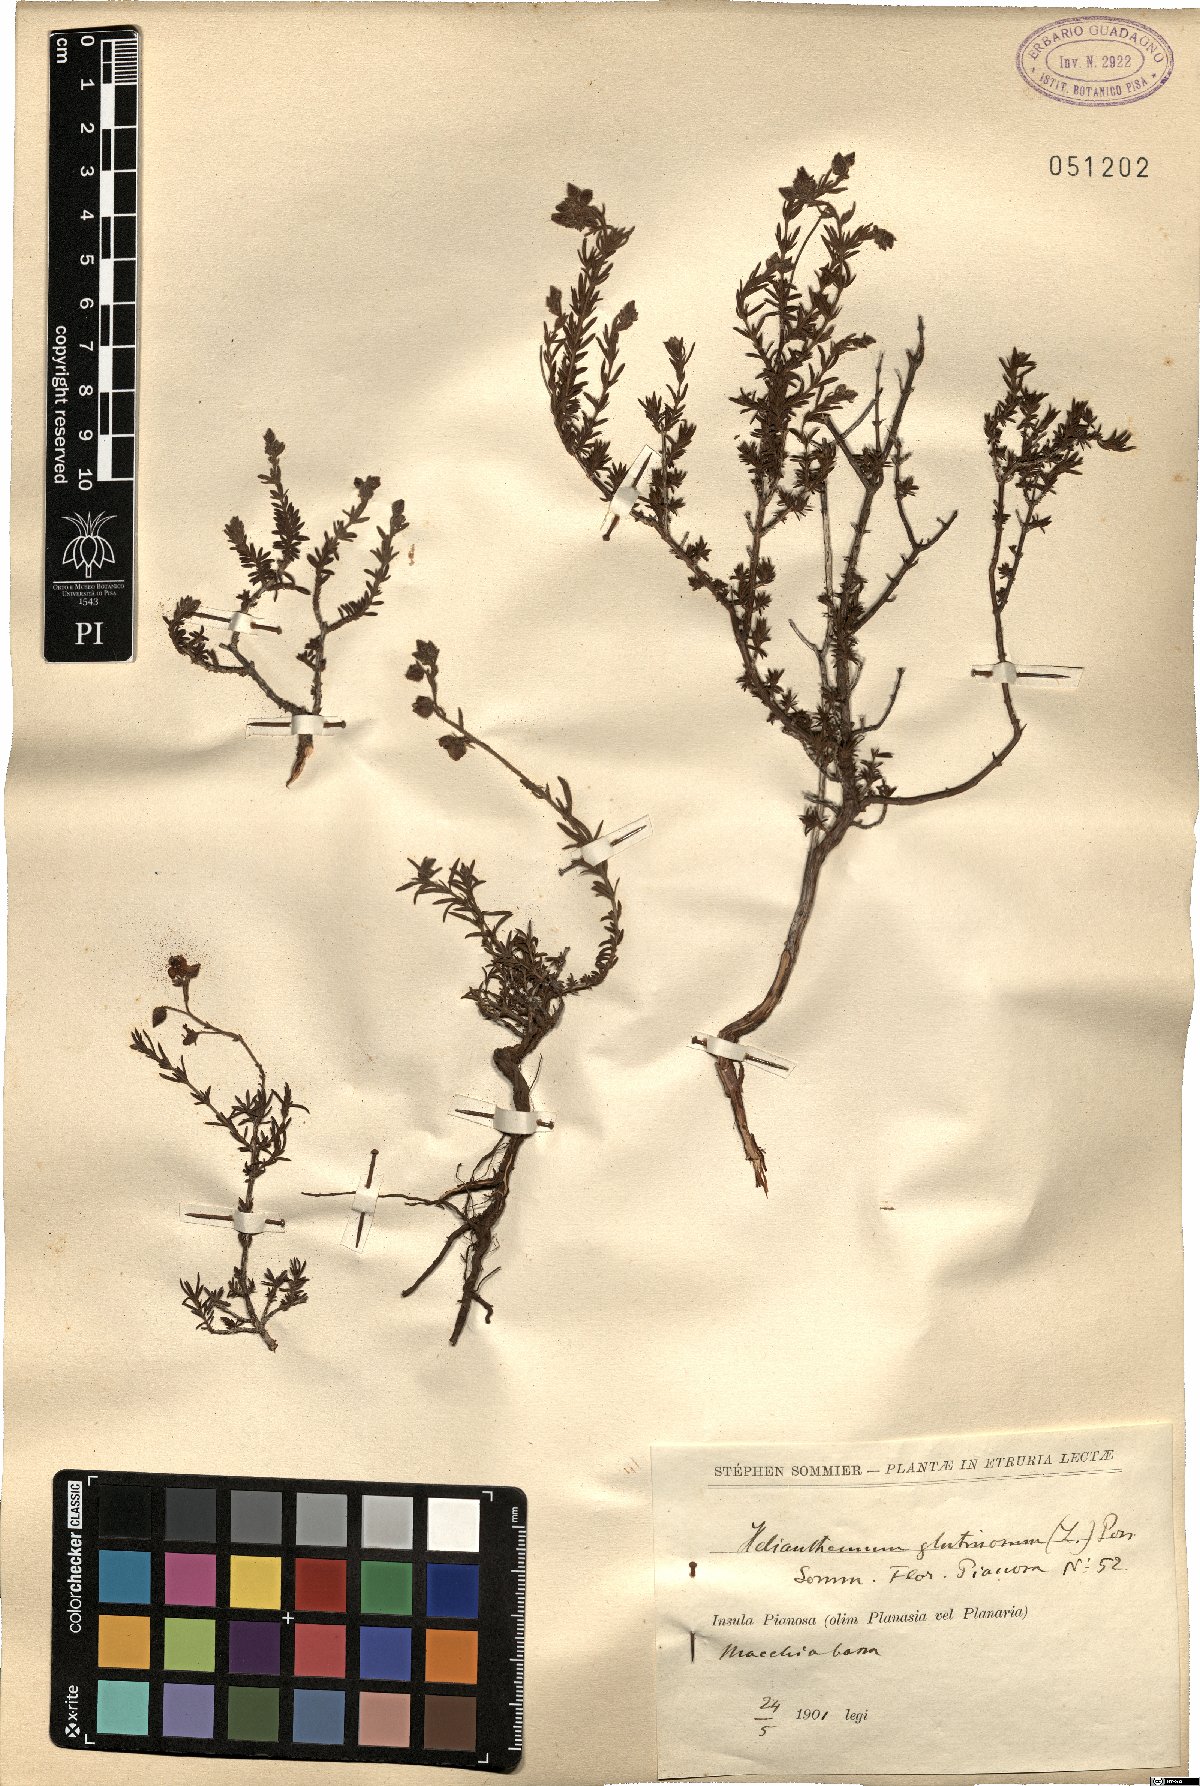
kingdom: Plantae
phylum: Tracheophyta
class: Magnoliopsida
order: Malvales
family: Cistaceae
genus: Fumana
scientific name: Fumana thymifolia
